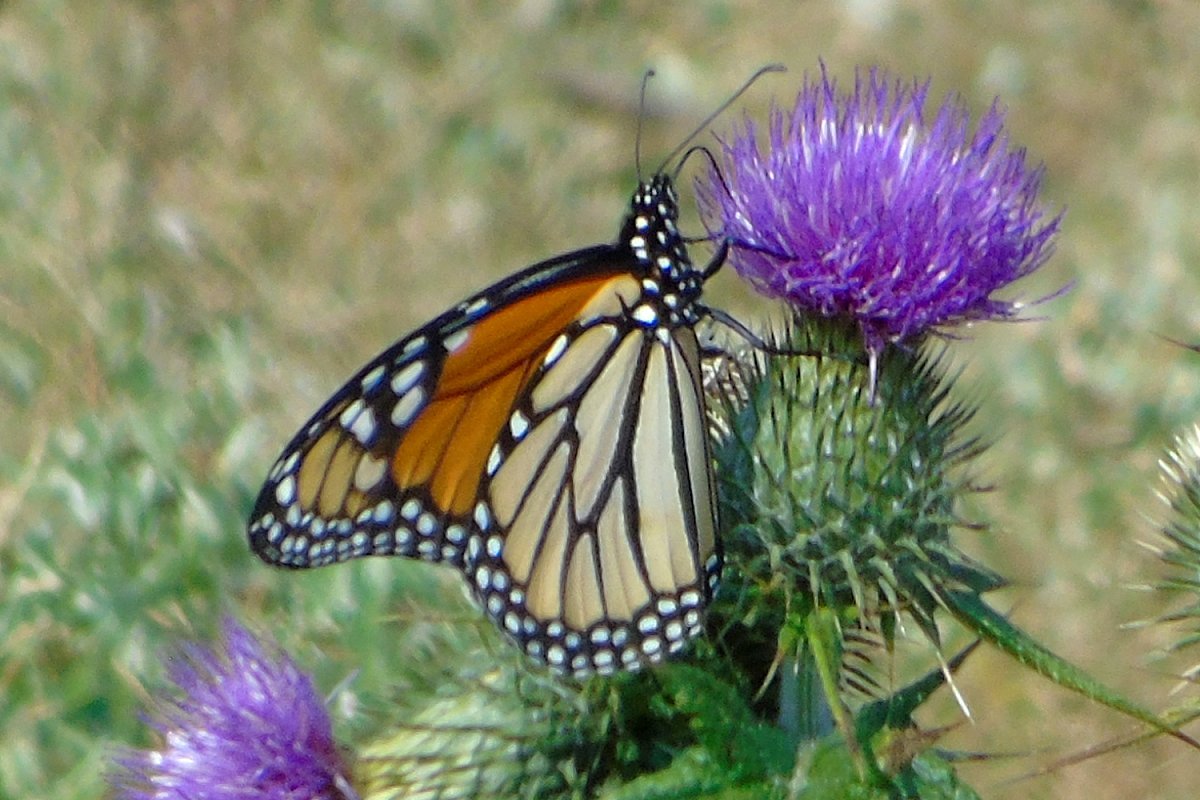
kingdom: Animalia
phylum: Arthropoda
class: Insecta
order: Lepidoptera
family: Nymphalidae
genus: Danaus
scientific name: Danaus plexippus
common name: Monarch
